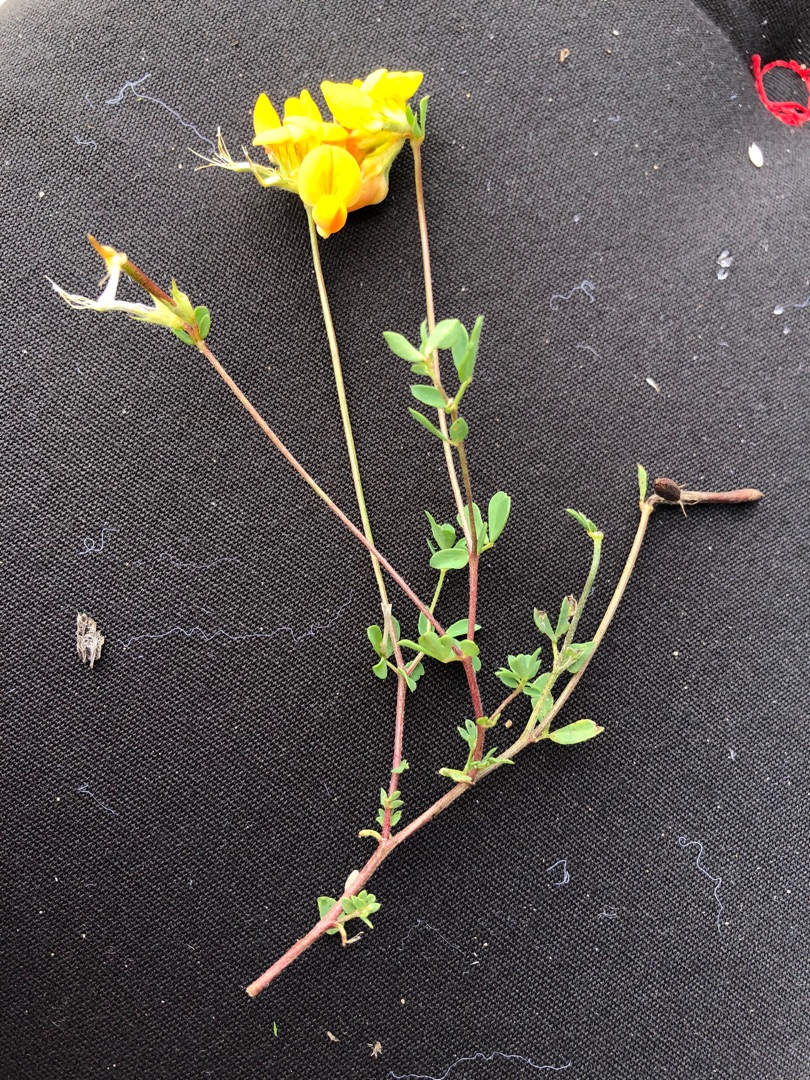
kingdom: Plantae
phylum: Tracheophyta
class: Magnoliopsida
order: Fabales
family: Fabaceae
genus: Lotus
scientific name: Lotus corniculatus
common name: Almindelig kællingetand
